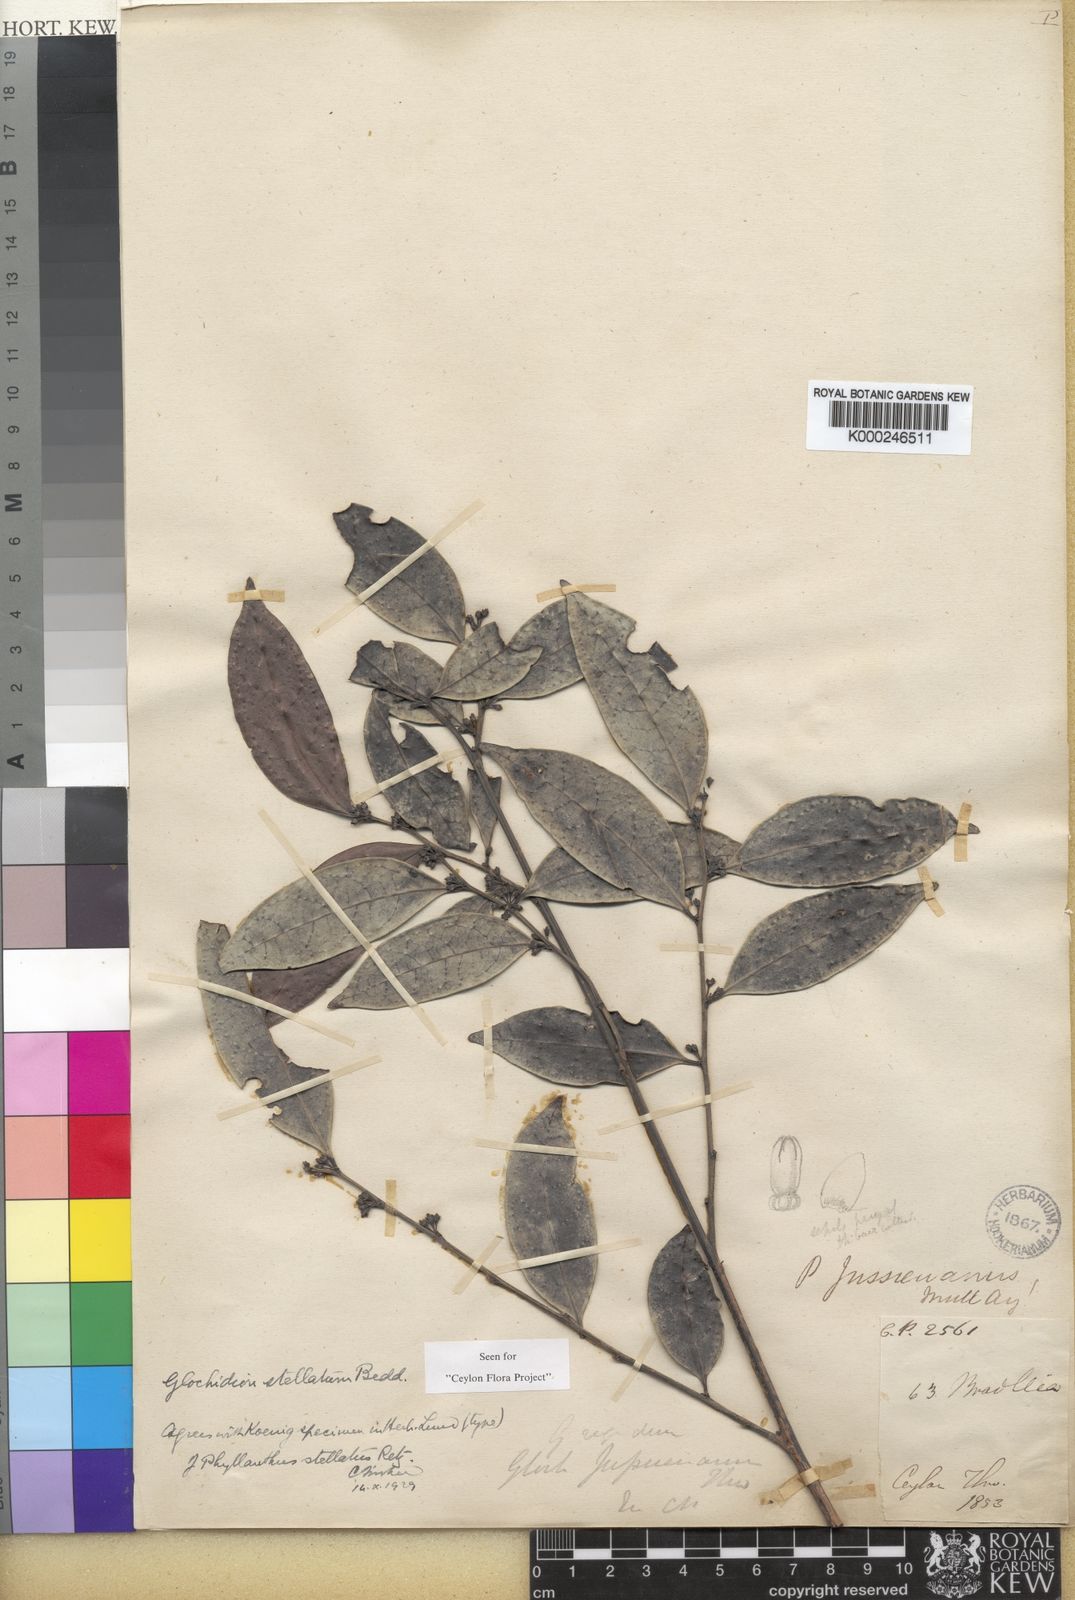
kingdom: Plantae
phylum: Tracheophyta
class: Magnoliopsida
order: Malpighiales
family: Phyllanthaceae
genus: Glochidion
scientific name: Glochidion stellatum
